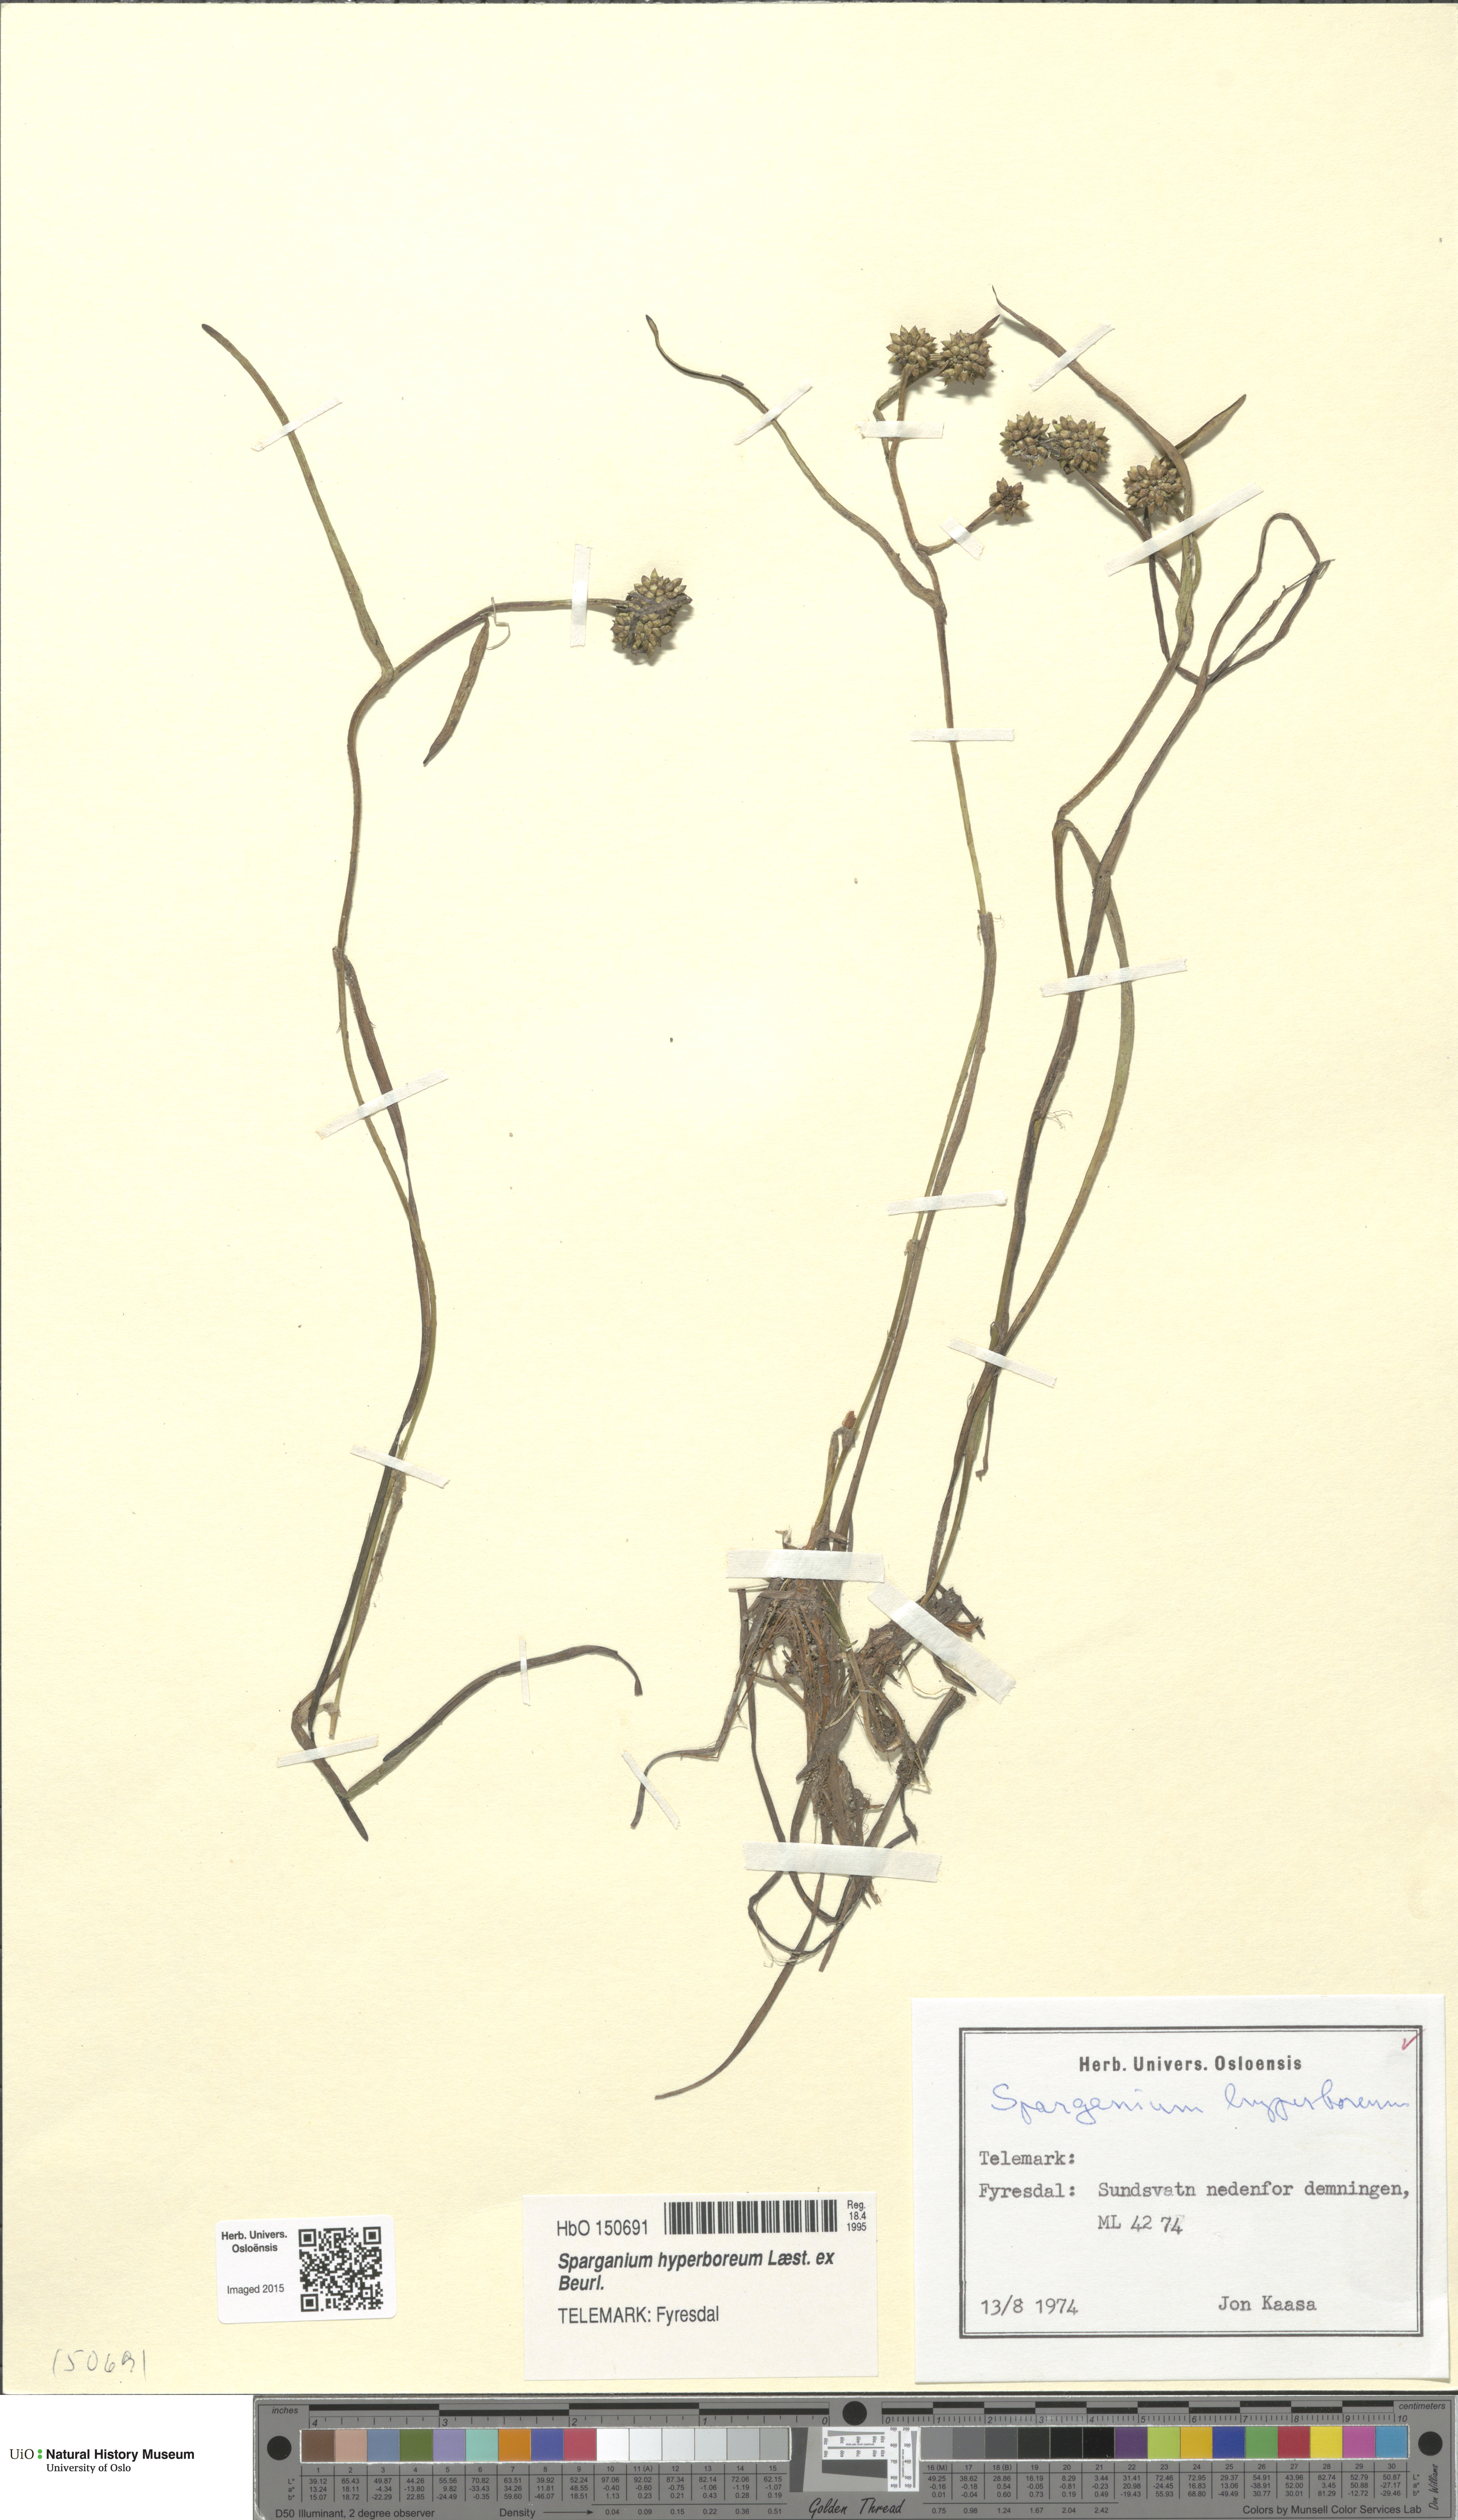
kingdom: Plantae
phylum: Tracheophyta
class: Liliopsida
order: Poales
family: Typhaceae
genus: Sparganium
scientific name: Sparganium hyperboreum
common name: Arctic burreed
